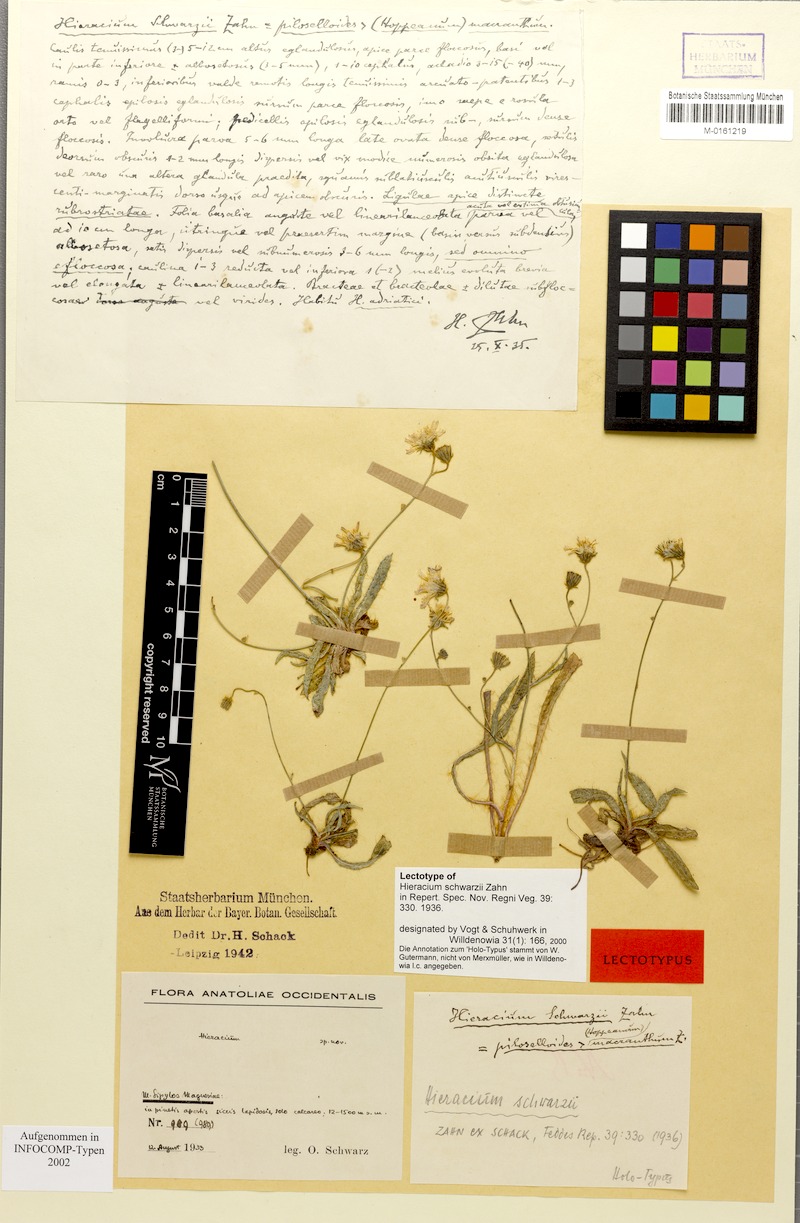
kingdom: Plantae
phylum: Tracheophyta
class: Magnoliopsida
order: Asterales
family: Asteraceae
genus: Hieracium
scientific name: Hieracium schwarzii
